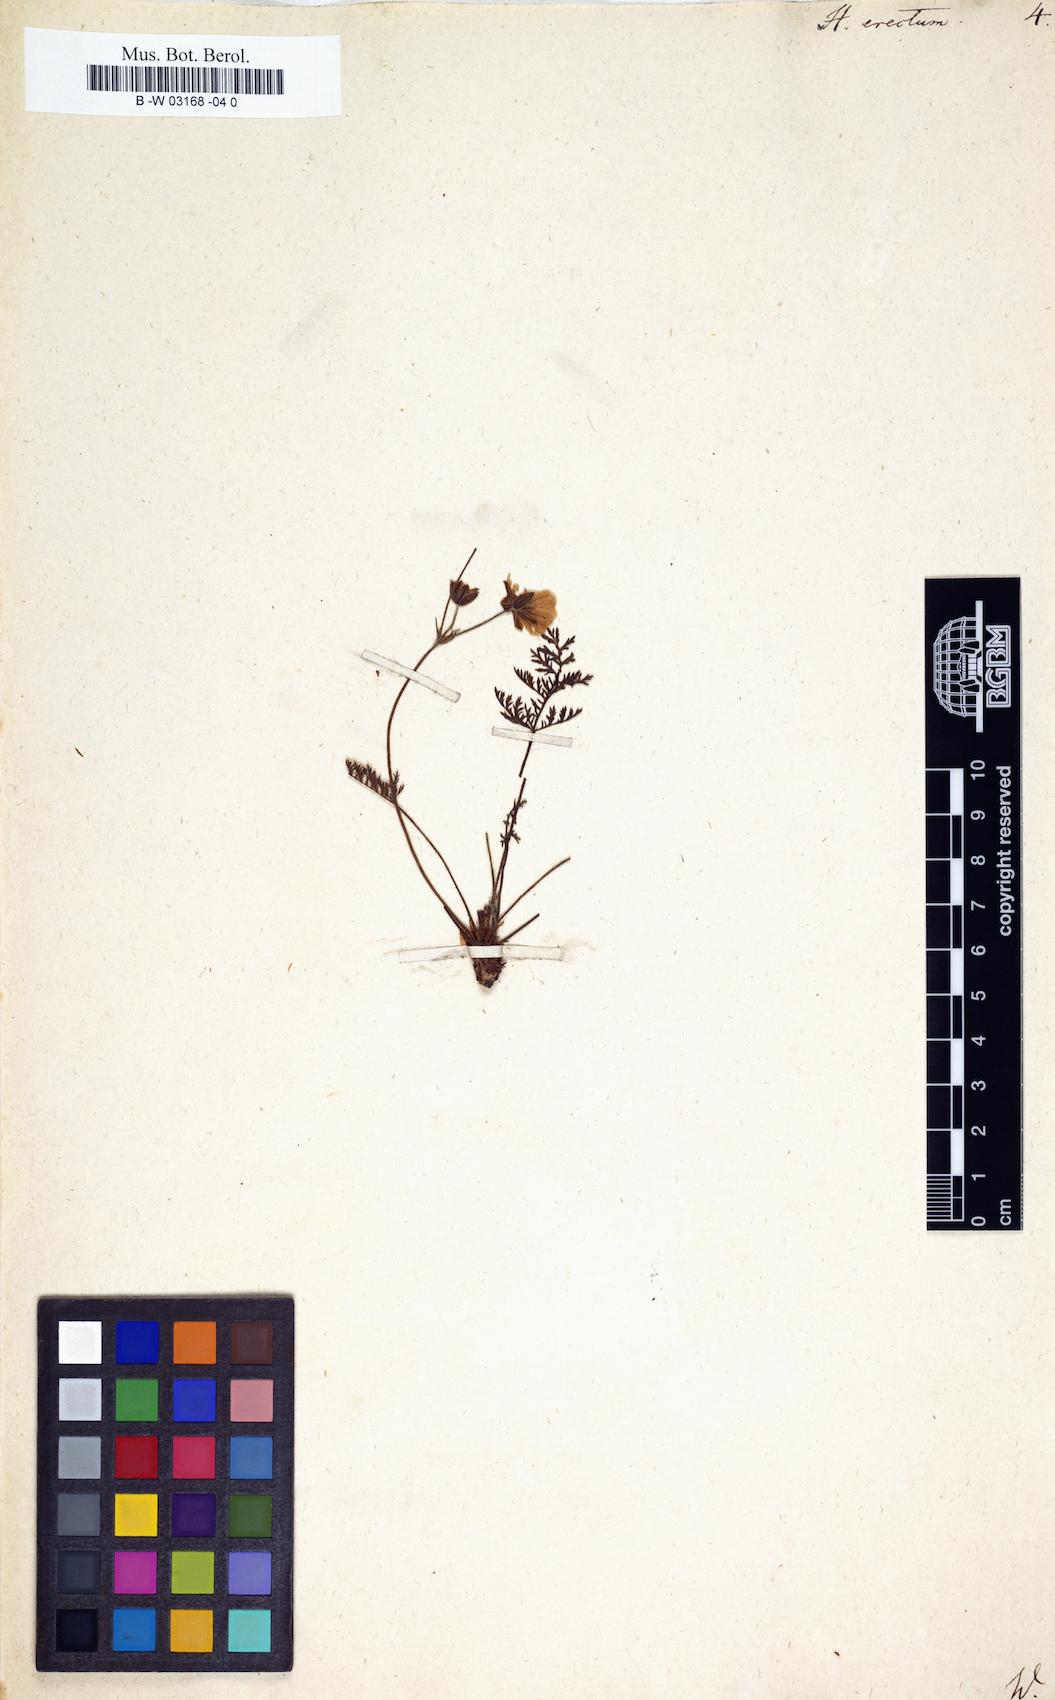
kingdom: Plantae
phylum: Tracheophyta
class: Magnoliopsida
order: Ranunculales
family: Papaveraceae
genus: Hypecoum
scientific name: Hypecoum erectum
